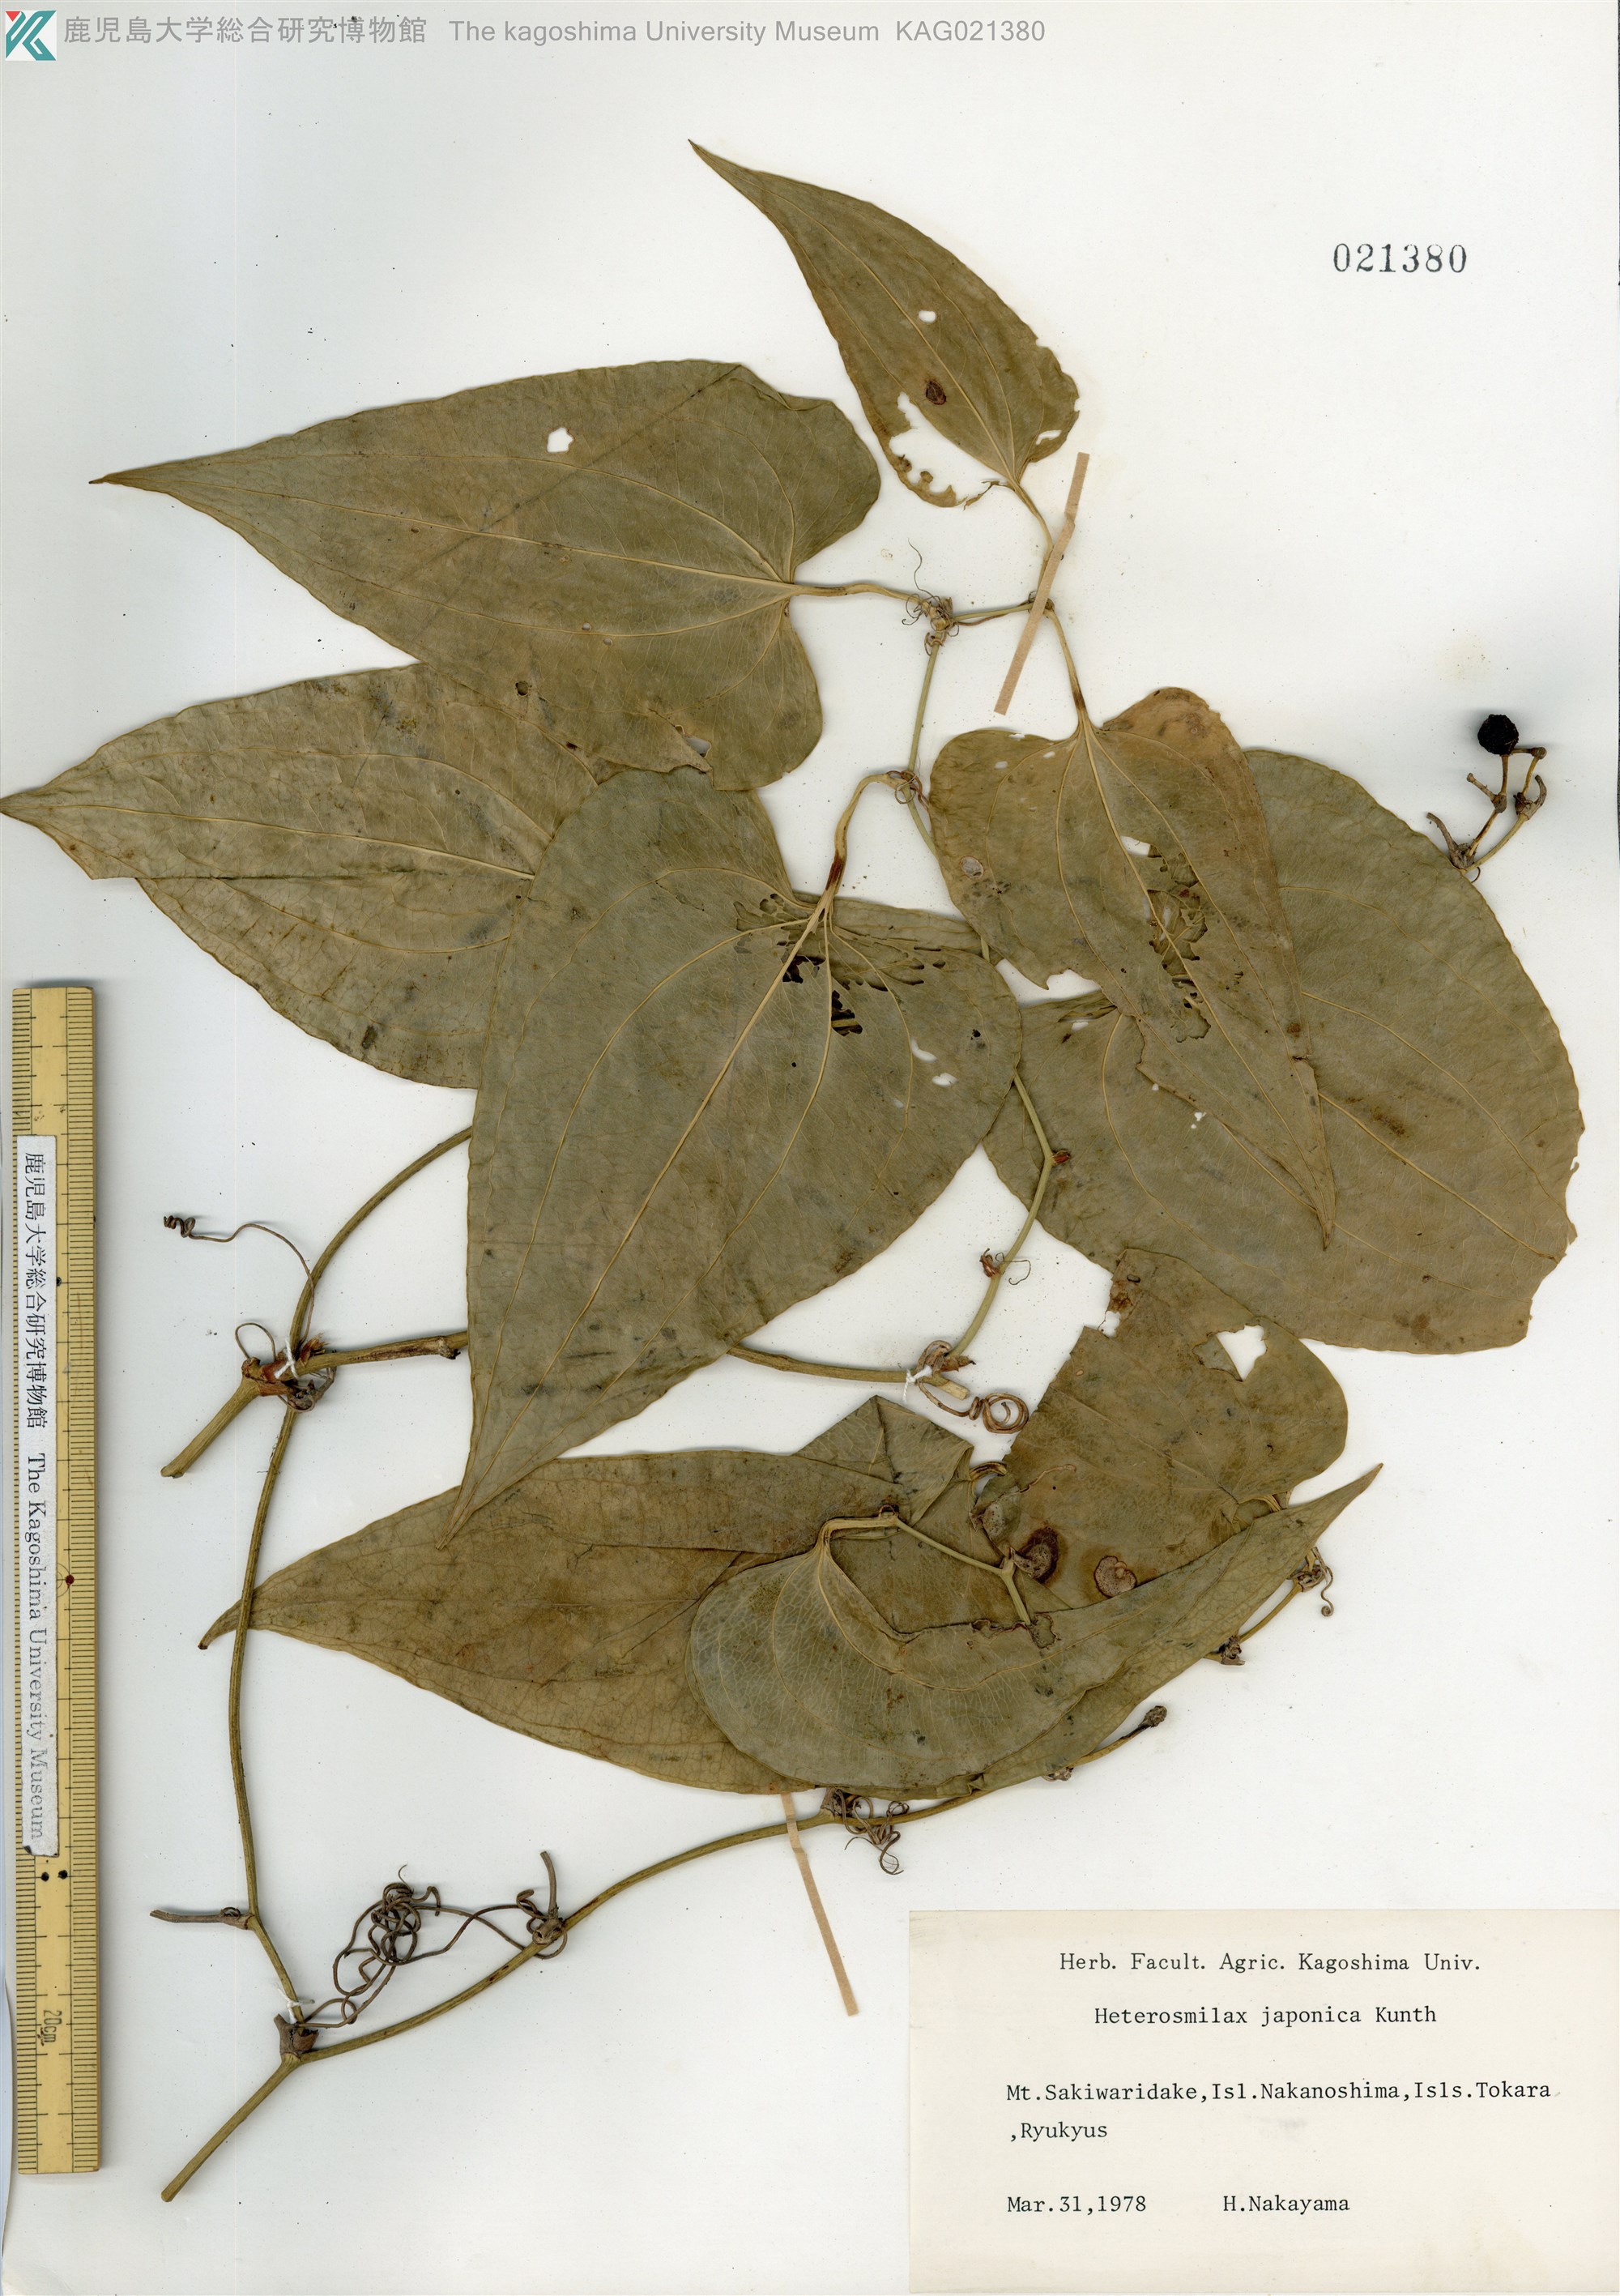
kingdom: Plantae
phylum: Tracheophyta
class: Liliopsida
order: Liliales
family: Smilacaceae
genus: Smilax
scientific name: Smilax insularis
